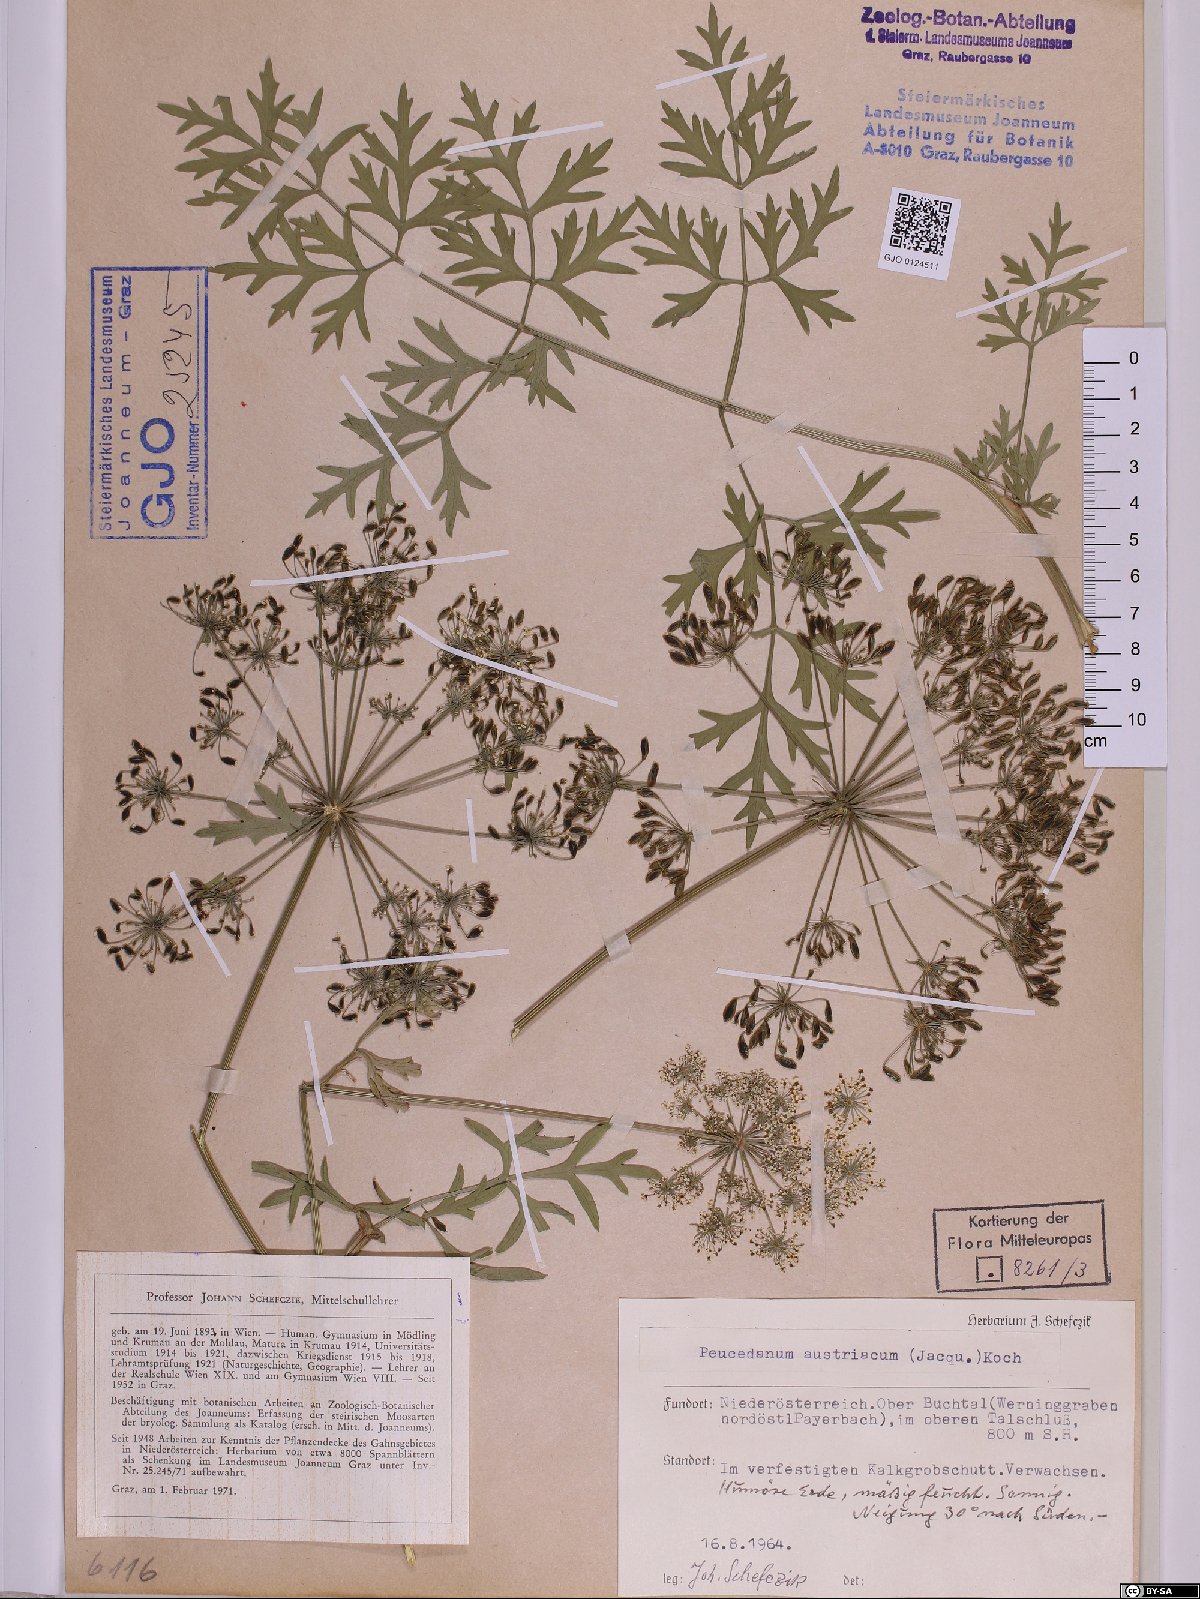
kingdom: Plantae
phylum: Tracheophyta
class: Magnoliopsida
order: Apiales
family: Apiaceae
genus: Peucedanum
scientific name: Peucedanum austriacum
